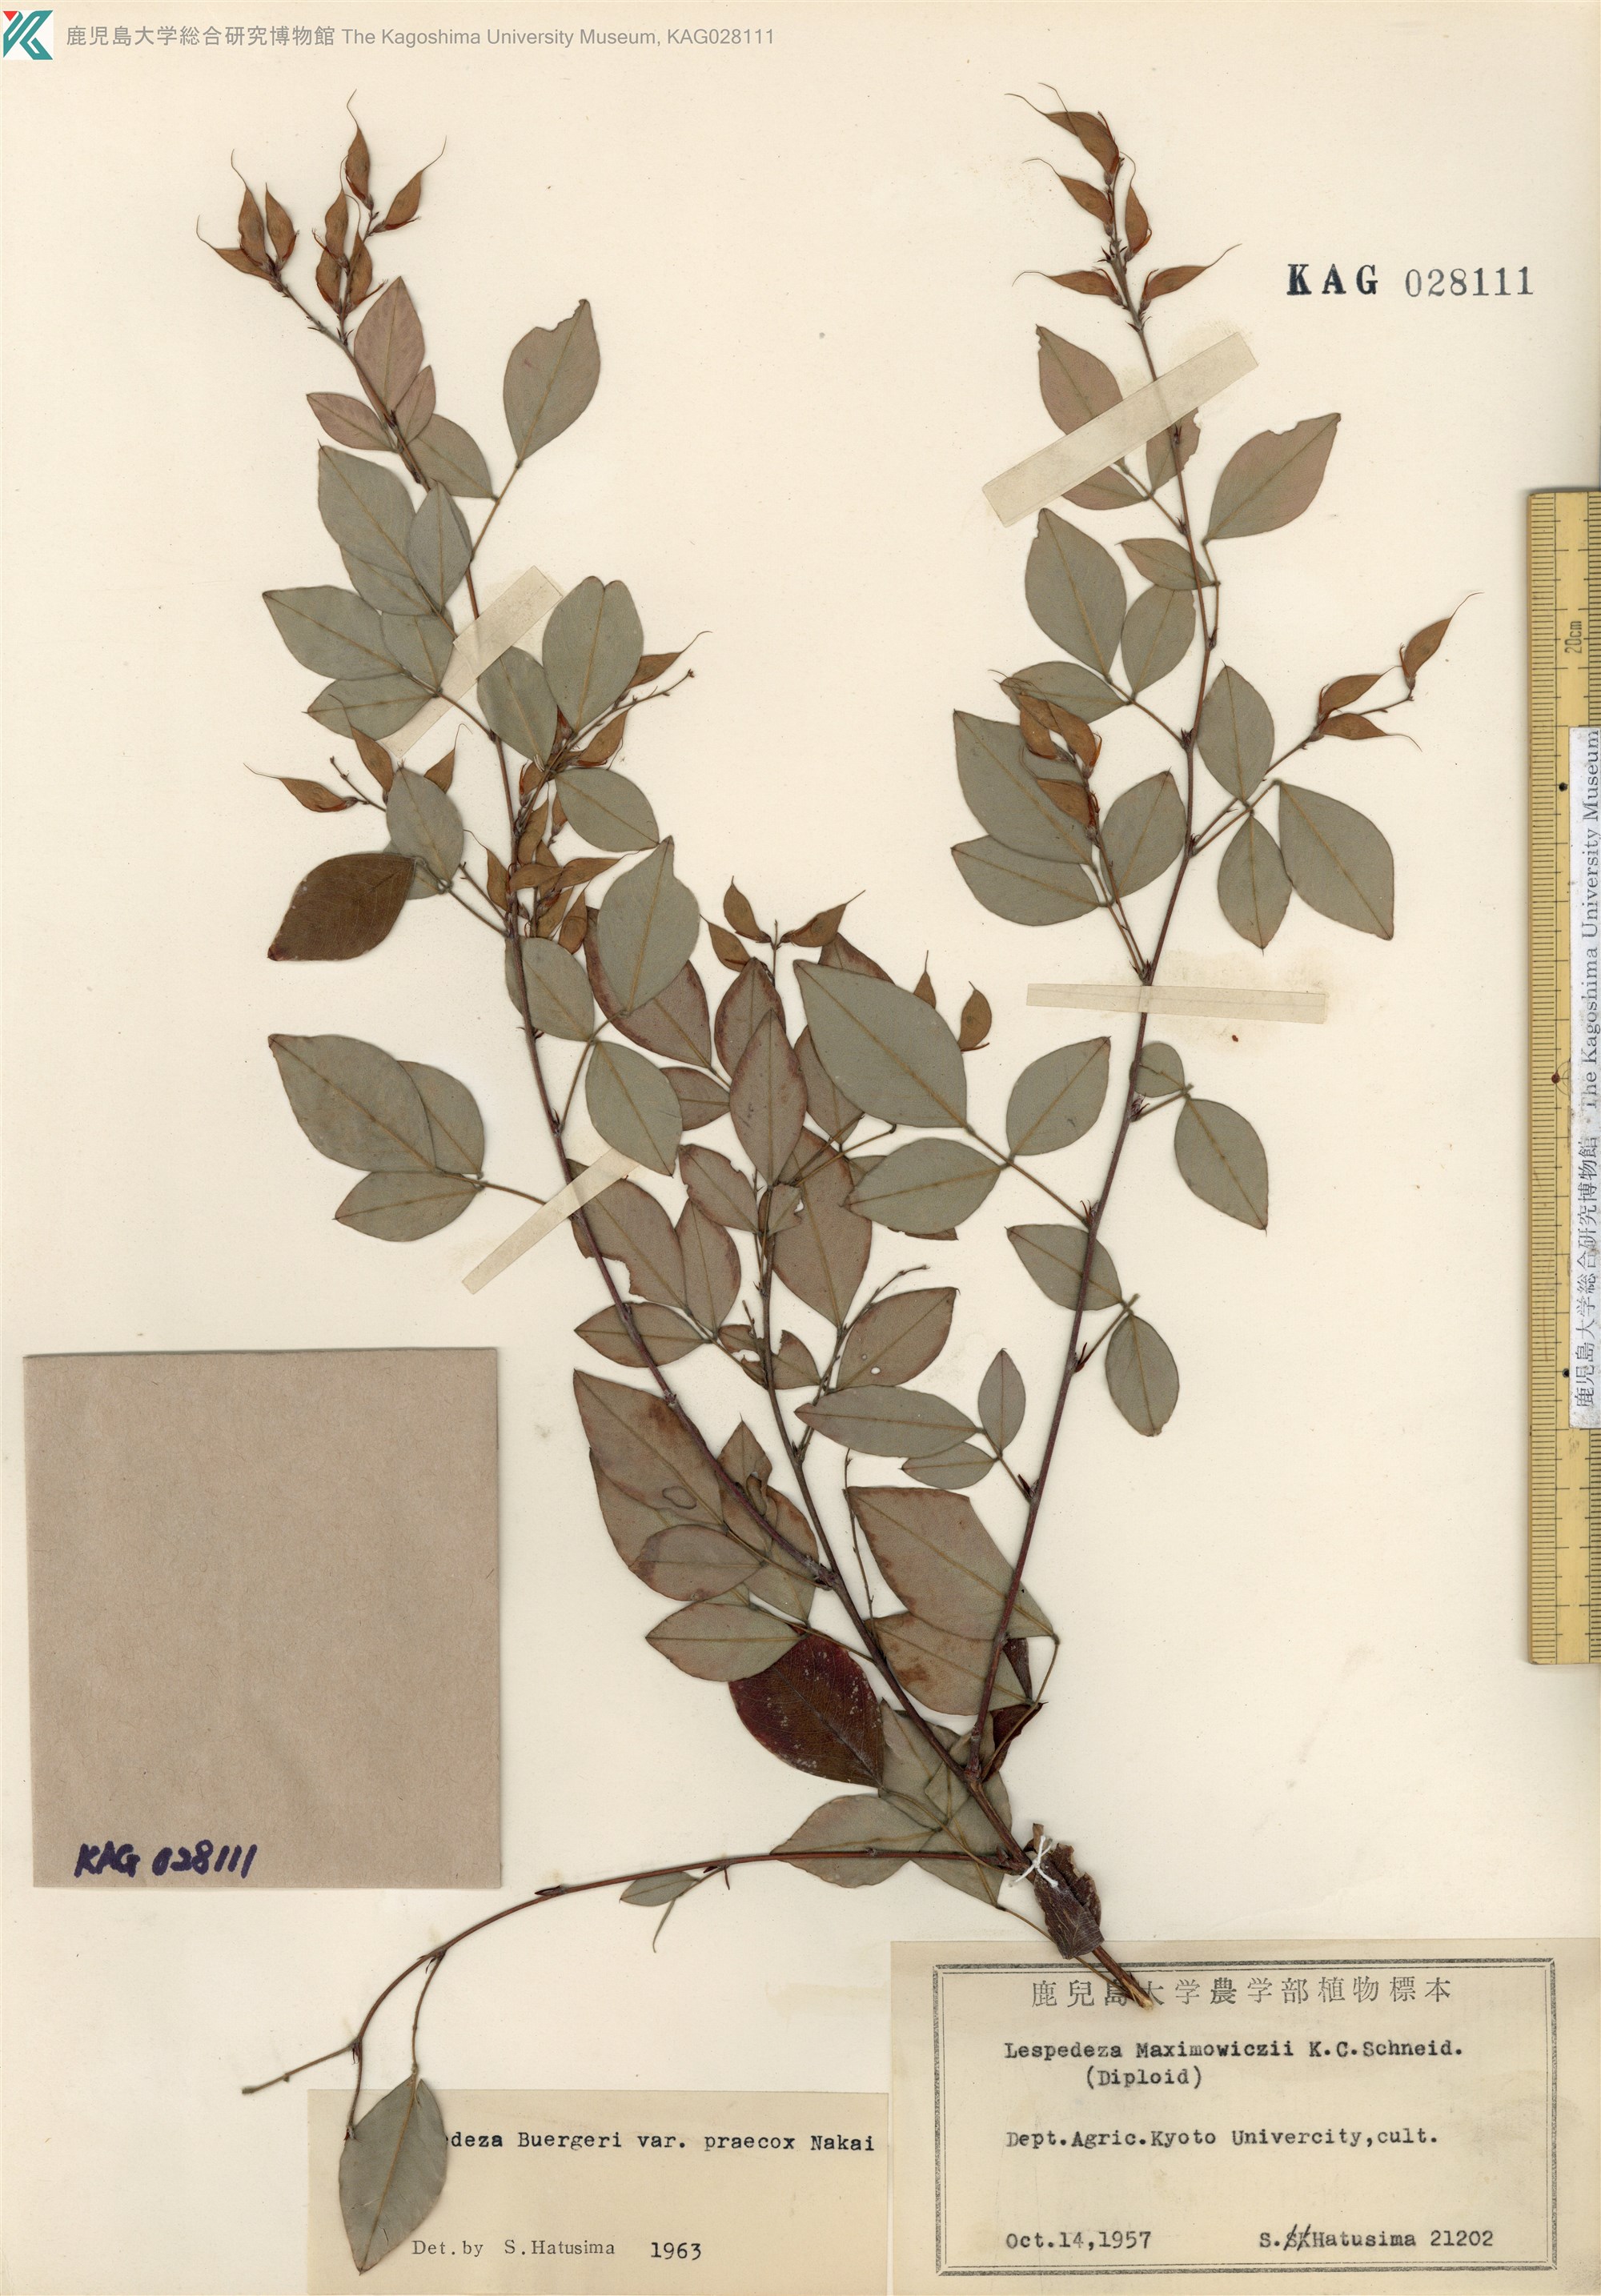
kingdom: Plantae
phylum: Tracheophyta
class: Magnoliopsida
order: Fabales
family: Fabaceae
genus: Lespedeza
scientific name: Lespedeza maximowiczii
